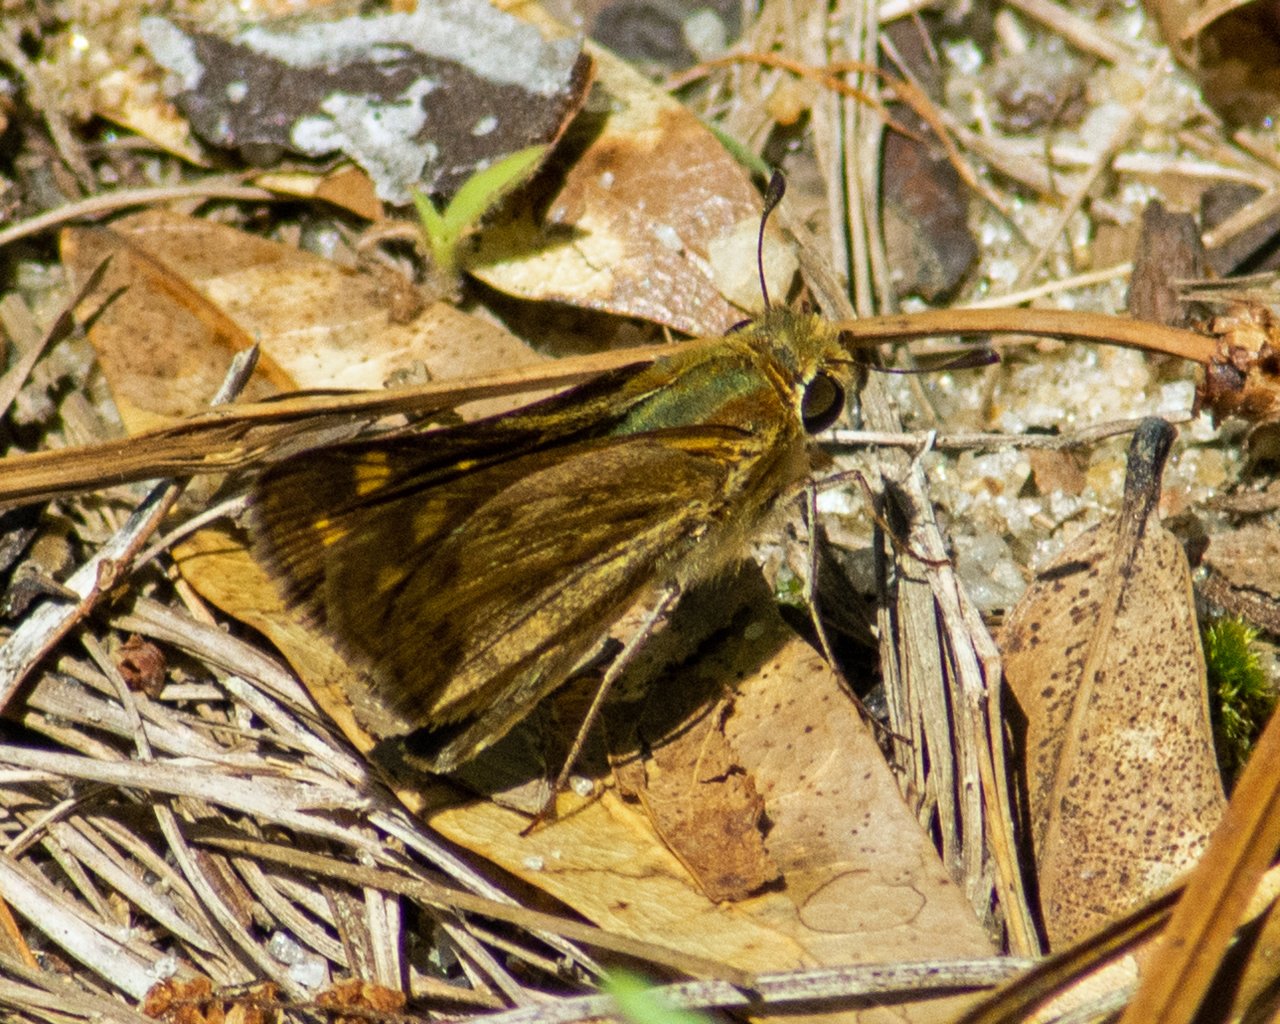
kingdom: Animalia
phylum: Arthropoda
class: Insecta
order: Lepidoptera
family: Hesperiidae
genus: Hylephila
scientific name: Hylephila phyleus
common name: Fiery Skipper
